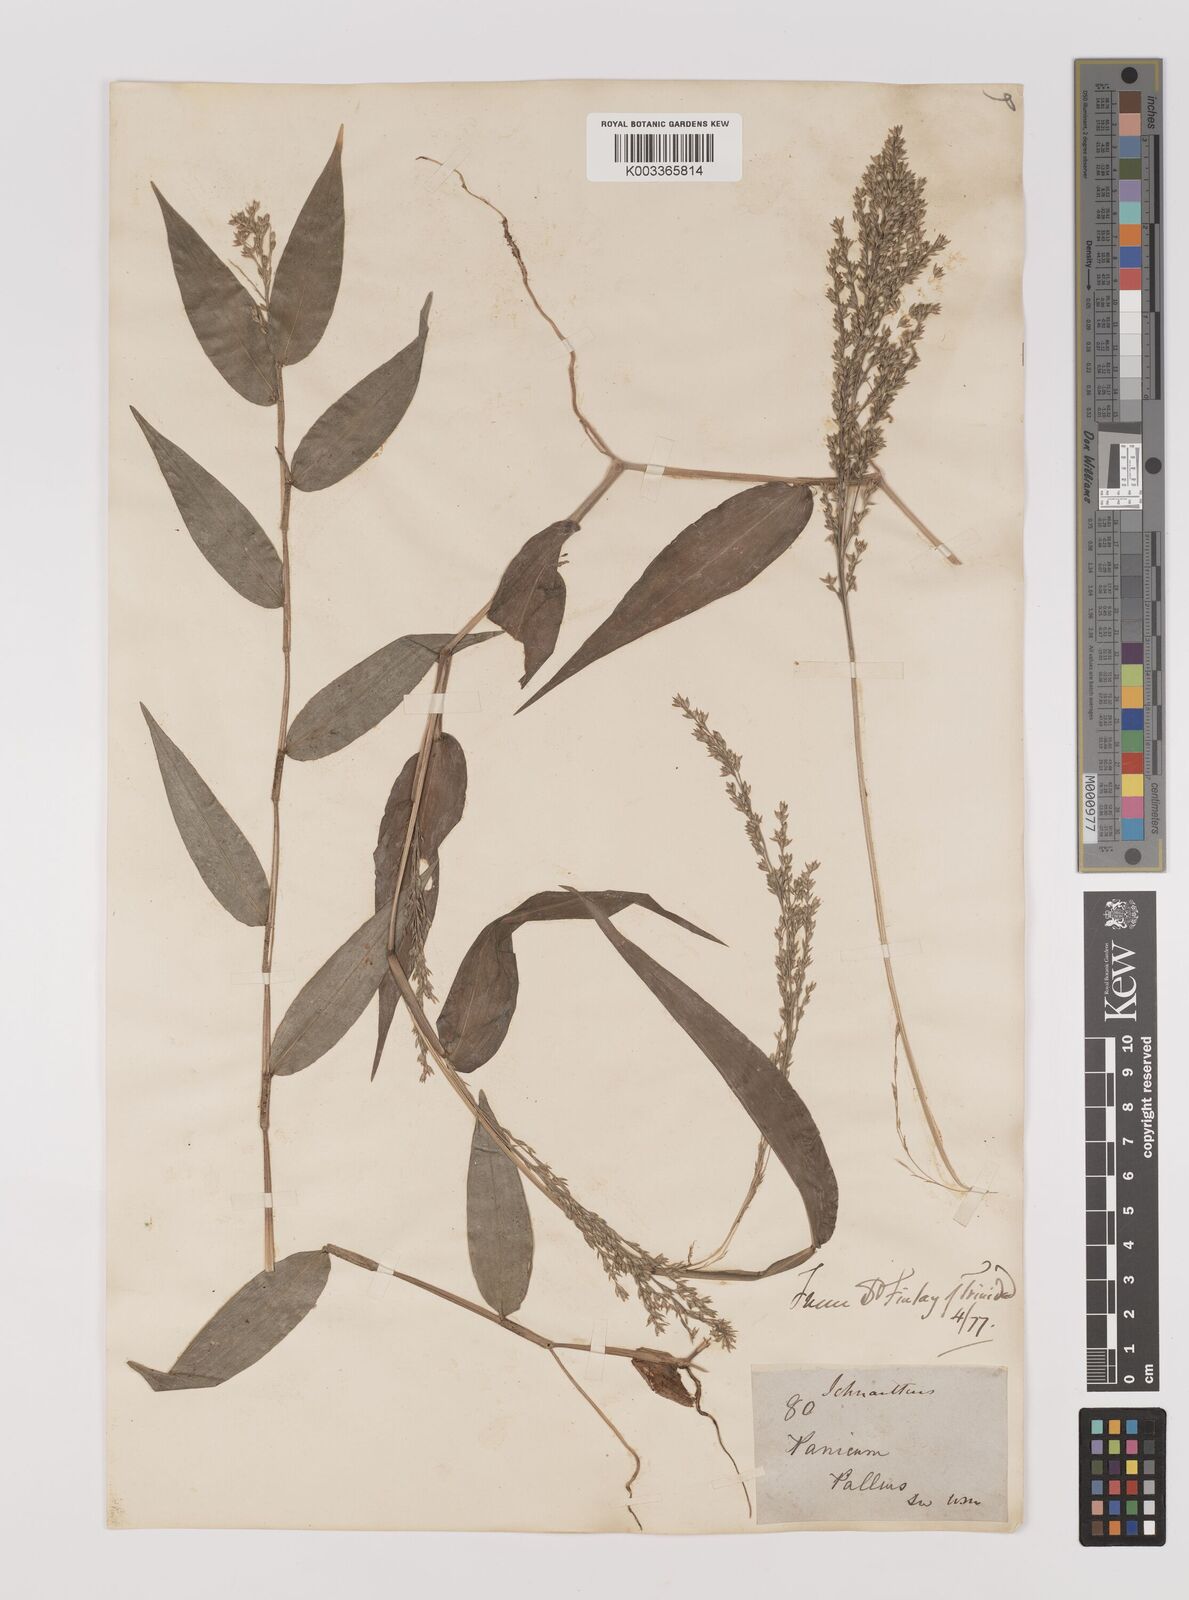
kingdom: Plantae
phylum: Tracheophyta
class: Liliopsida
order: Poales
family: Poaceae
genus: Ichnanthus
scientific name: Ichnanthus pallens
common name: Water grass
